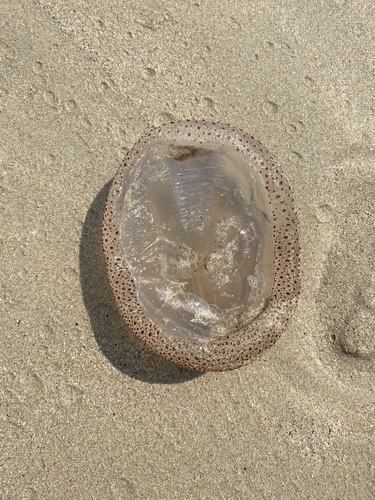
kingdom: Animalia
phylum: Cnidaria
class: Scyphozoa
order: Rhizostomeae
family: Catostylidae
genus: Acromitus
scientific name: Acromitus flagellatus
